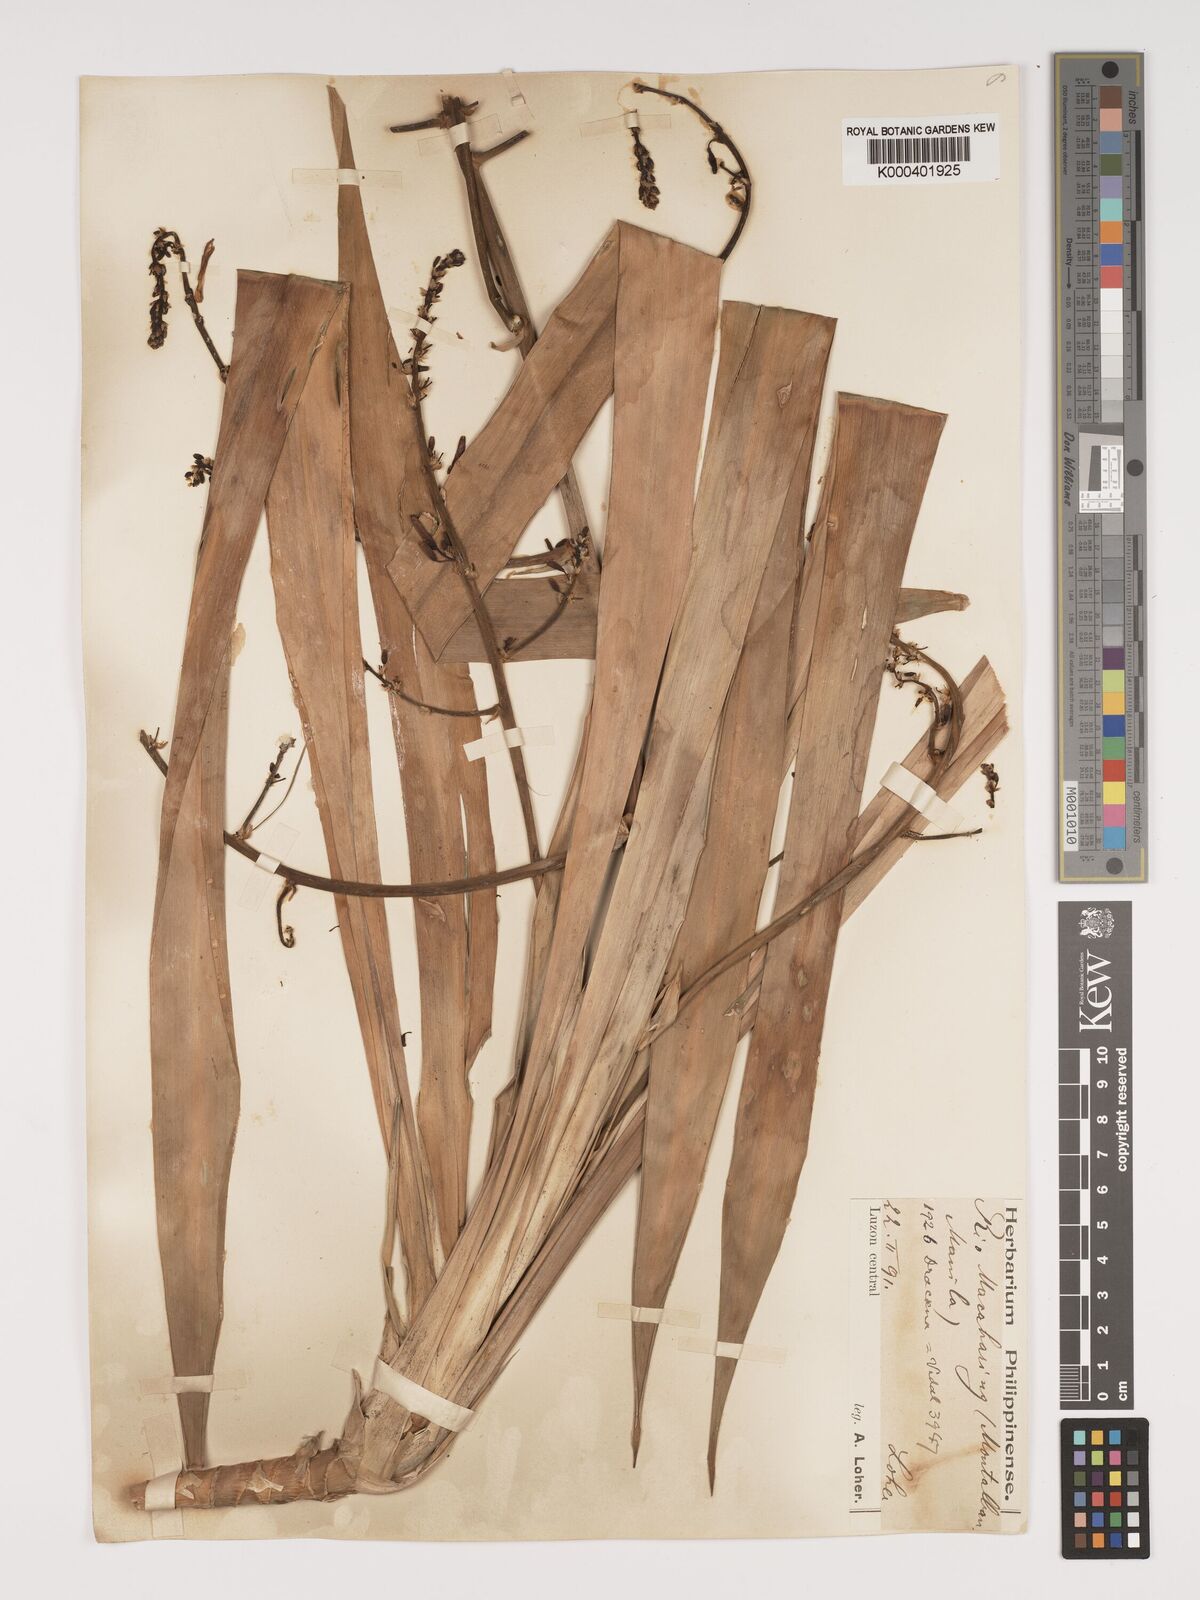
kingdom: Plantae
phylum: Tracheophyta
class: Liliopsida
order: Asparagales
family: Asparagaceae
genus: Dracaena
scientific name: Dracaena
